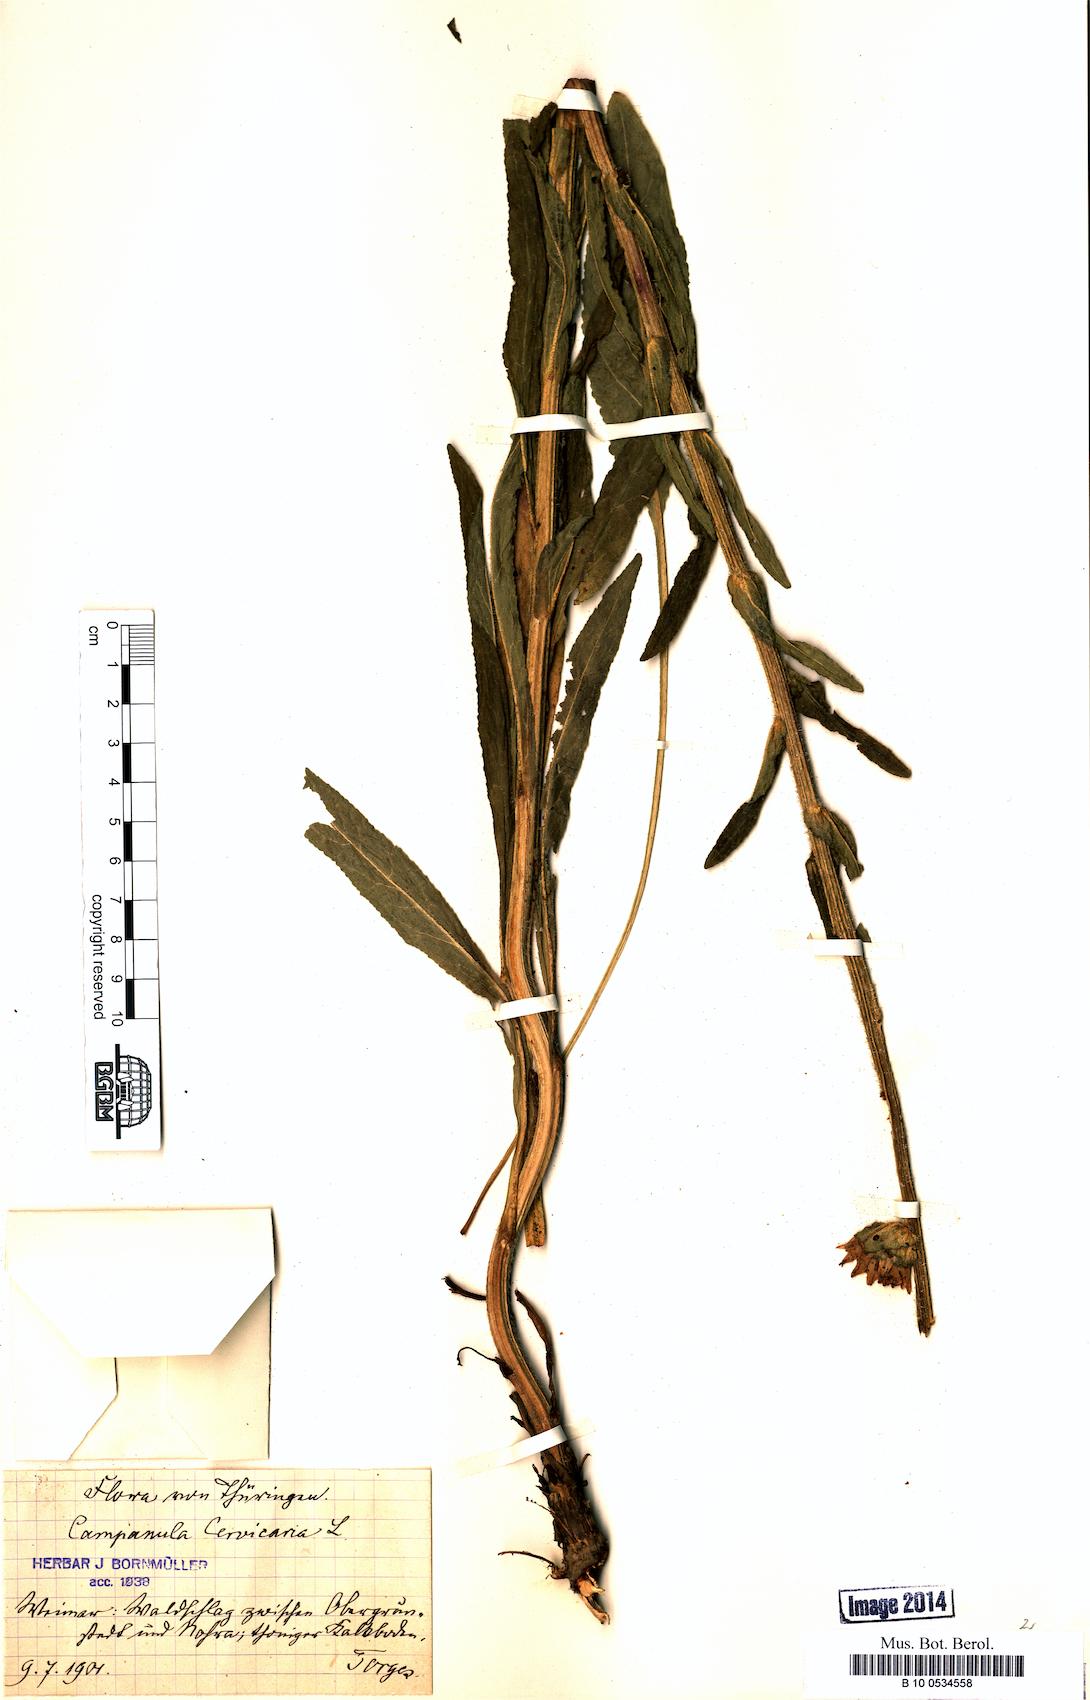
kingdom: Plantae
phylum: Tracheophyta
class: Magnoliopsida
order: Asterales
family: Campanulaceae
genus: Campanula
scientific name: Campanula cervicaria
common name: Bristly bellflower
